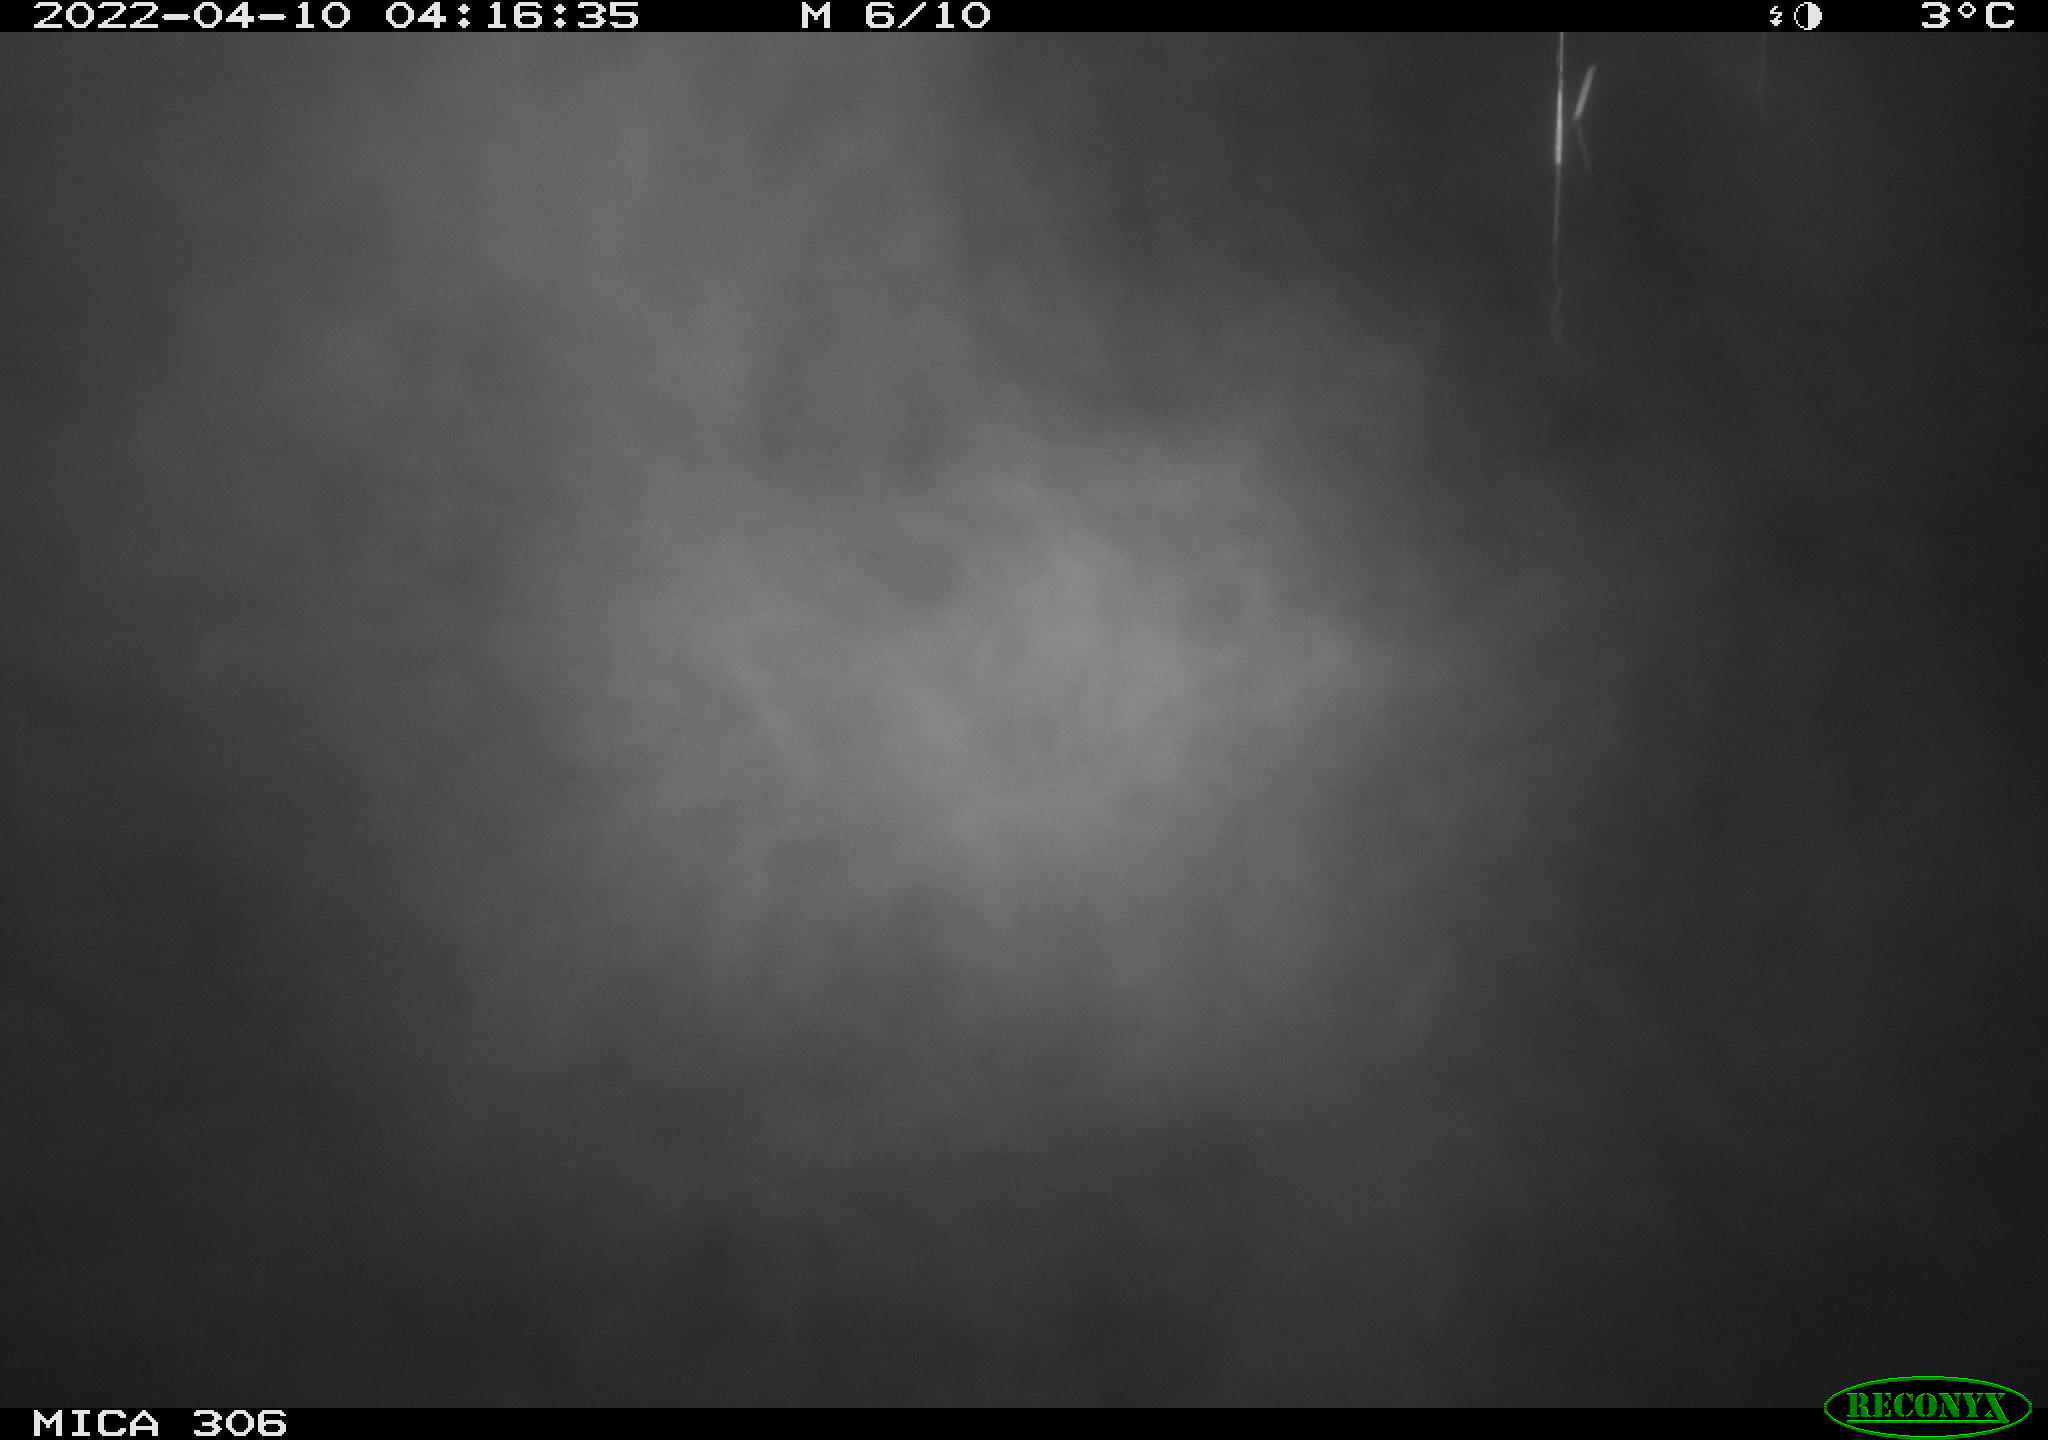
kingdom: Animalia
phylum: Chordata
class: Mammalia
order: Rodentia
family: Cricetidae
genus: Ondatra
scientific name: Ondatra zibethicus
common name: Muskrat
